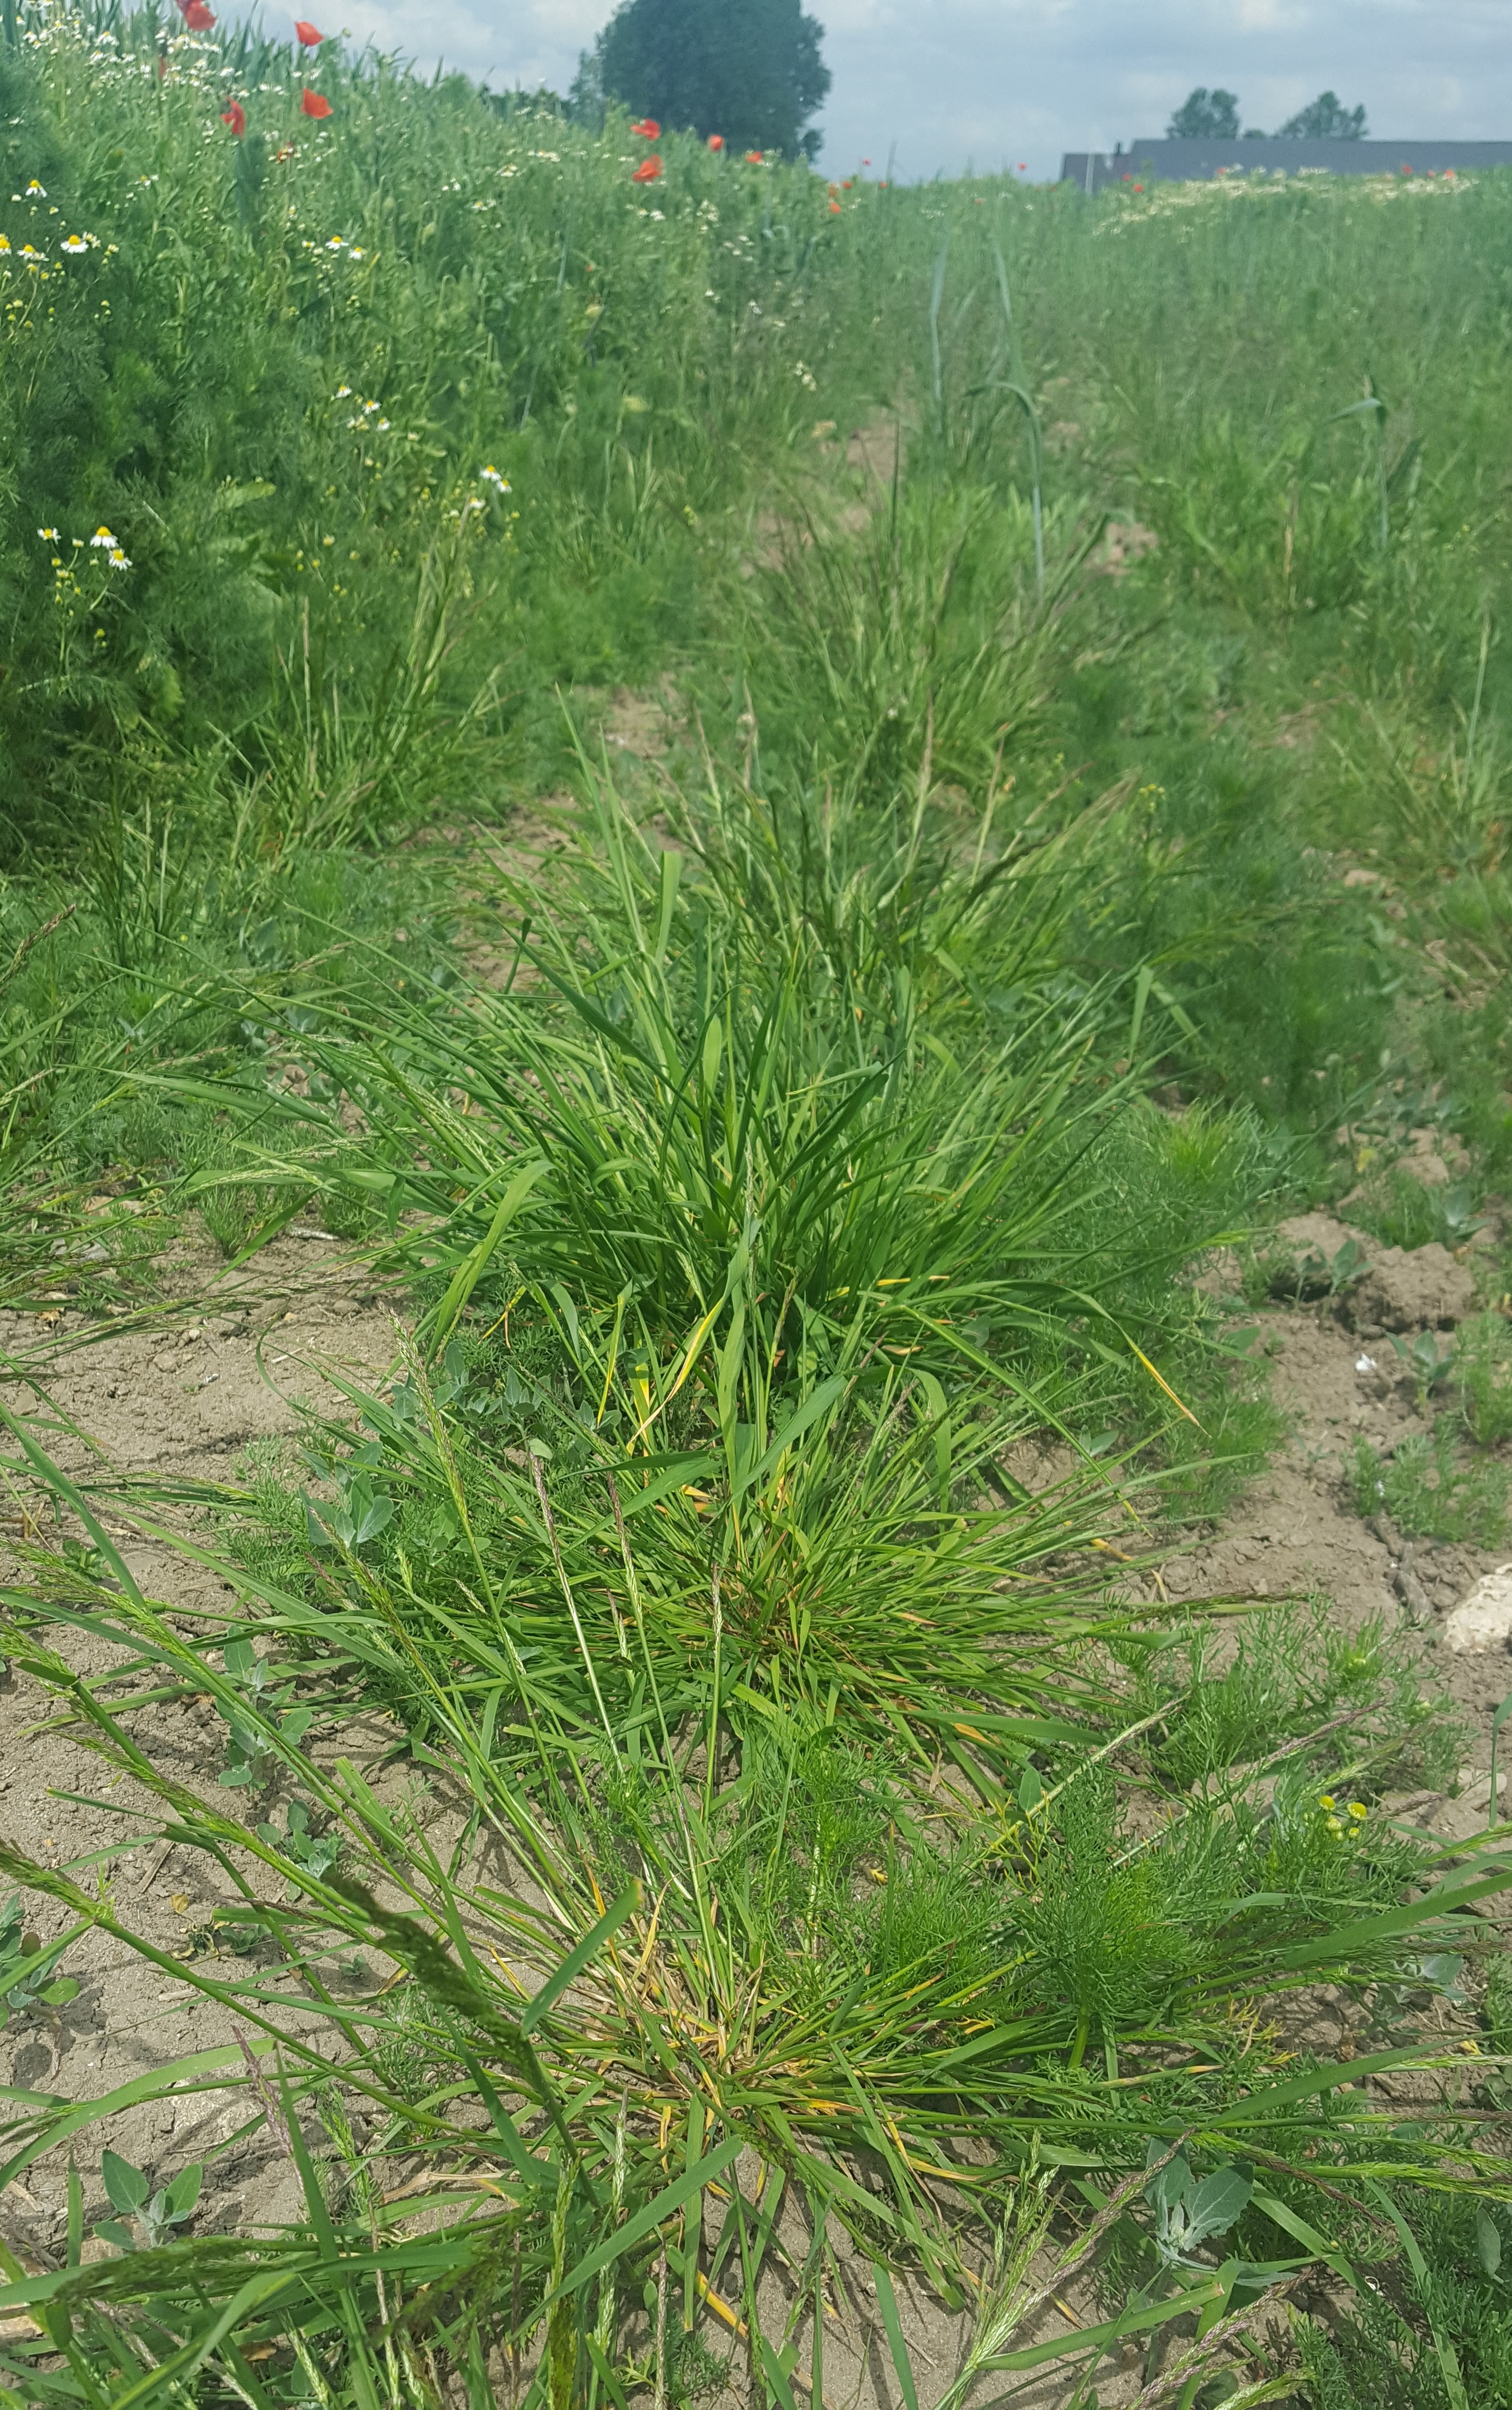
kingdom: Plantae
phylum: Tracheophyta
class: Liliopsida
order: Poales
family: Poaceae
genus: Agrostis
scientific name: Agrostis capillaris
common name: Colonial bentgrass
